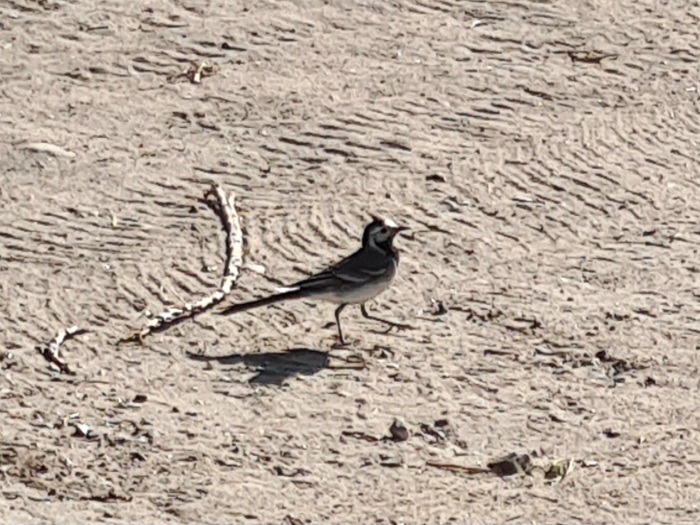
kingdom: Animalia
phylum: Chordata
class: Aves
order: Passeriformes
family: Motacillidae
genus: Motacilla
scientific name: Motacilla alba
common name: Hvid vipstjert
